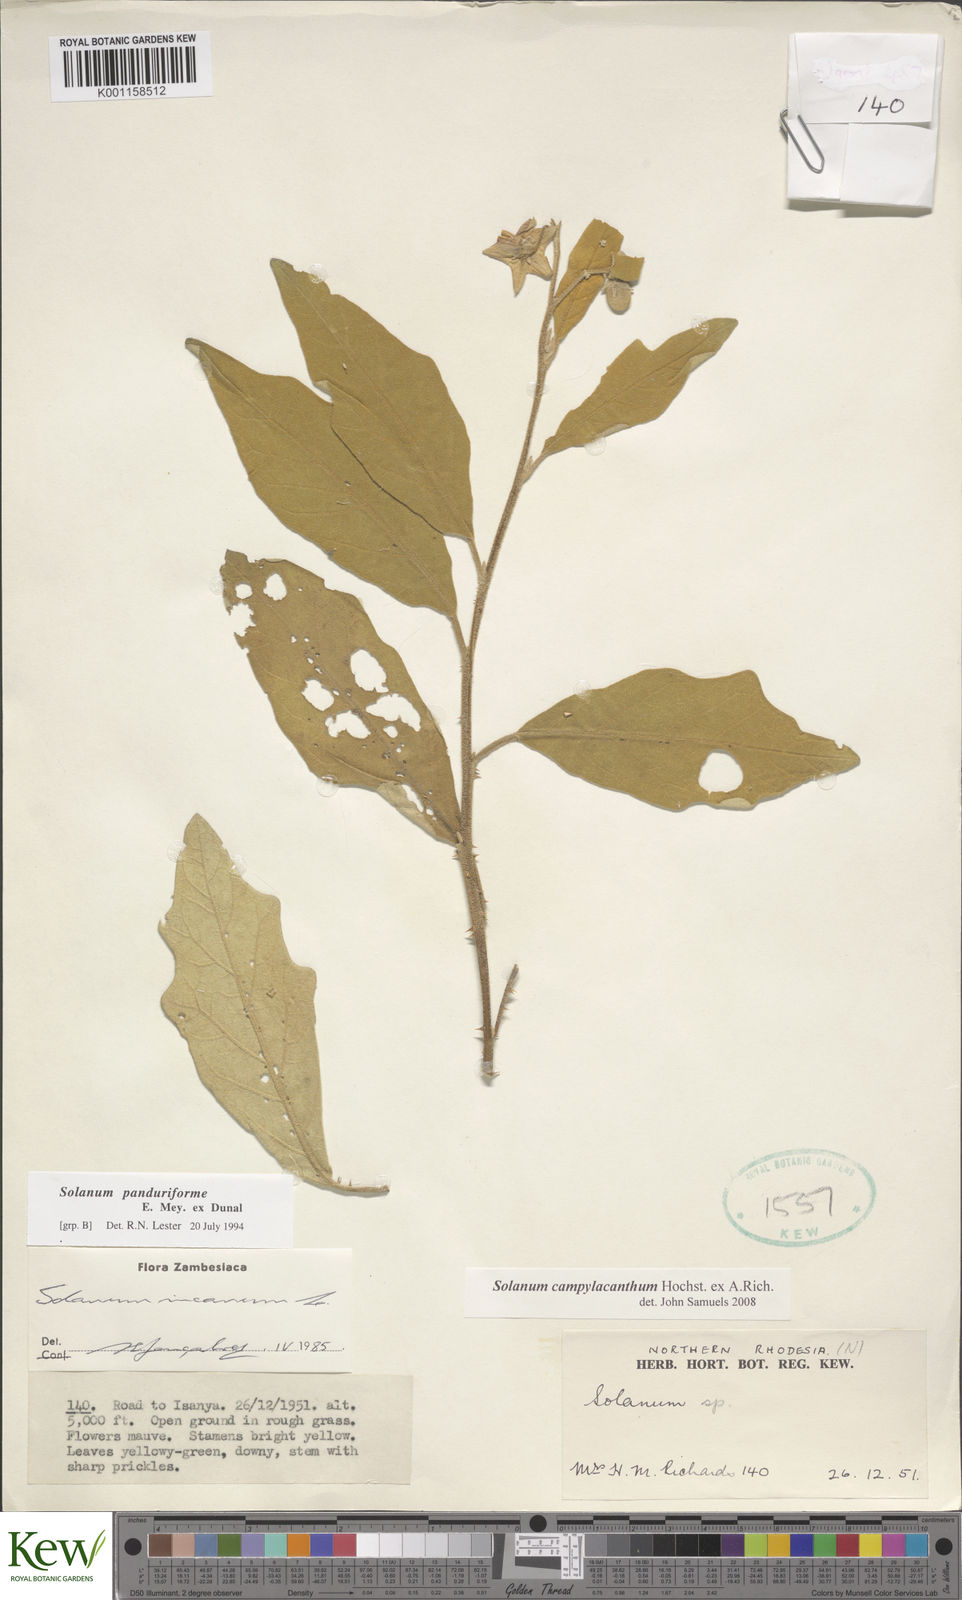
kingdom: Plantae
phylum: Tracheophyta
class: Magnoliopsida
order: Solanales
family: Solanaceae
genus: Solanum
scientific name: Solanum campylacanthum
